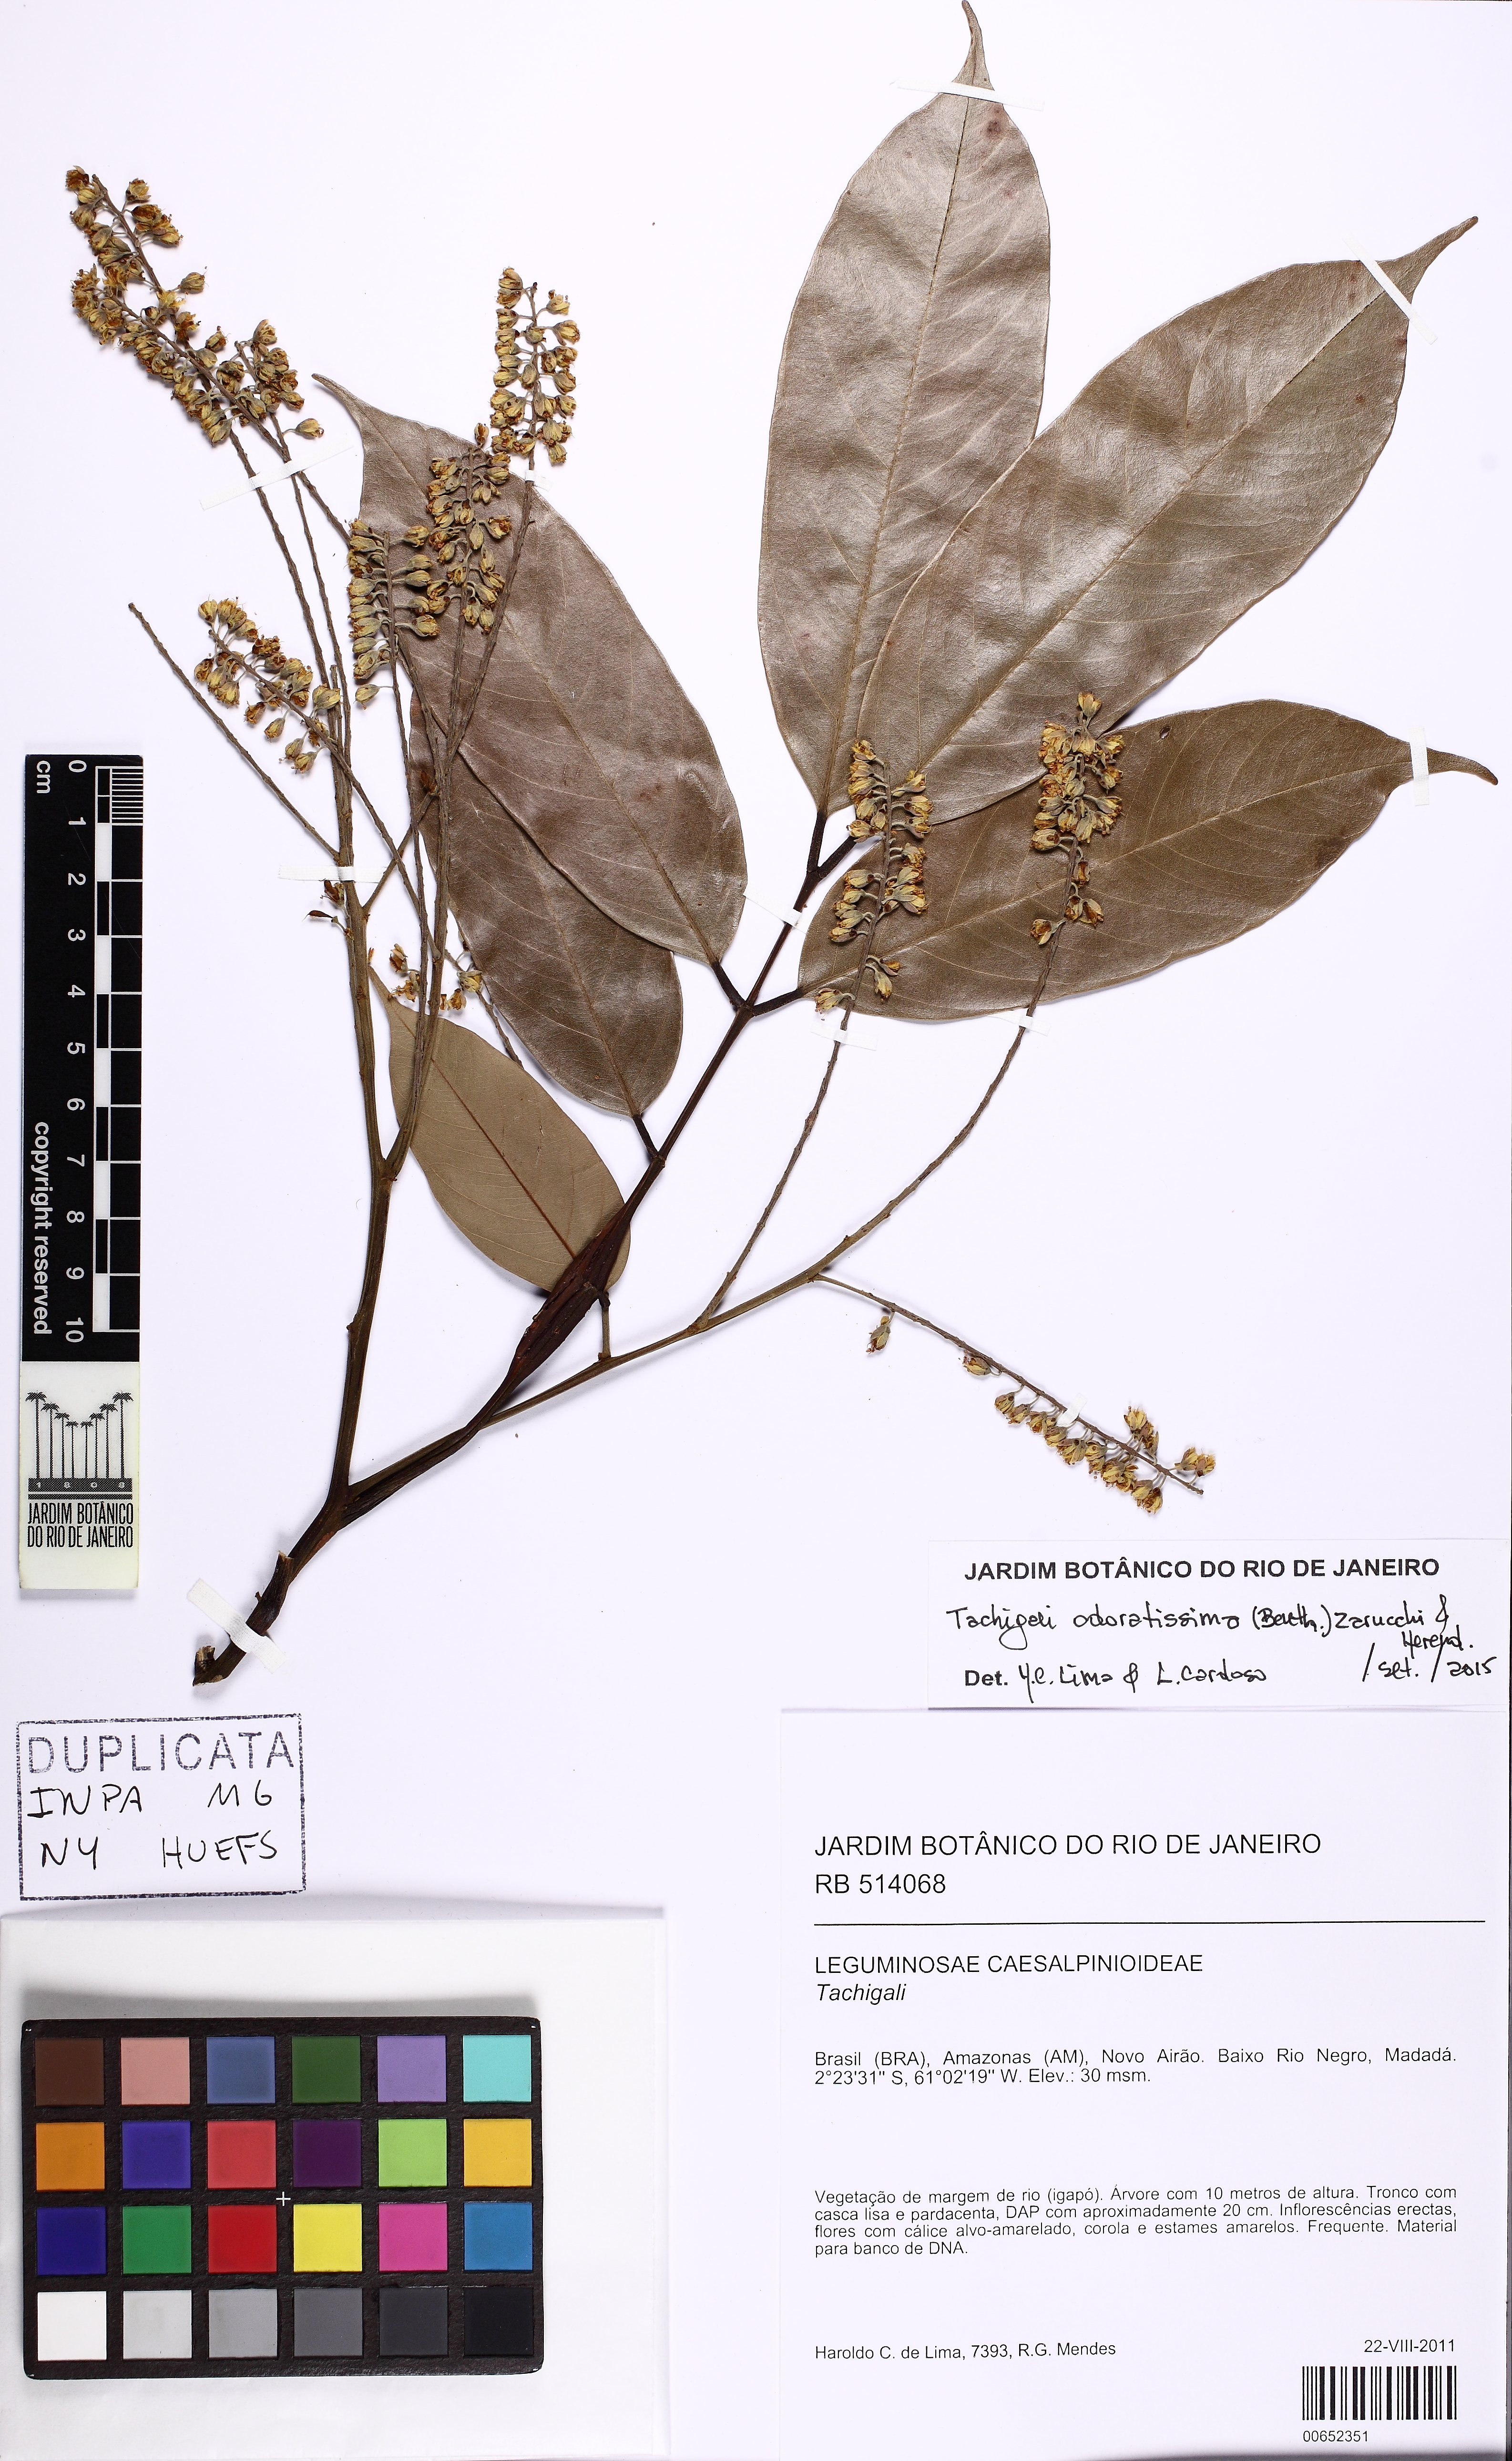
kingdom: Plantae
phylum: Tracheophyta
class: Magnoliopsida
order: Fabales
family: Fabaceae
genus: Tachigali
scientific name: Tachigali odoratissima
